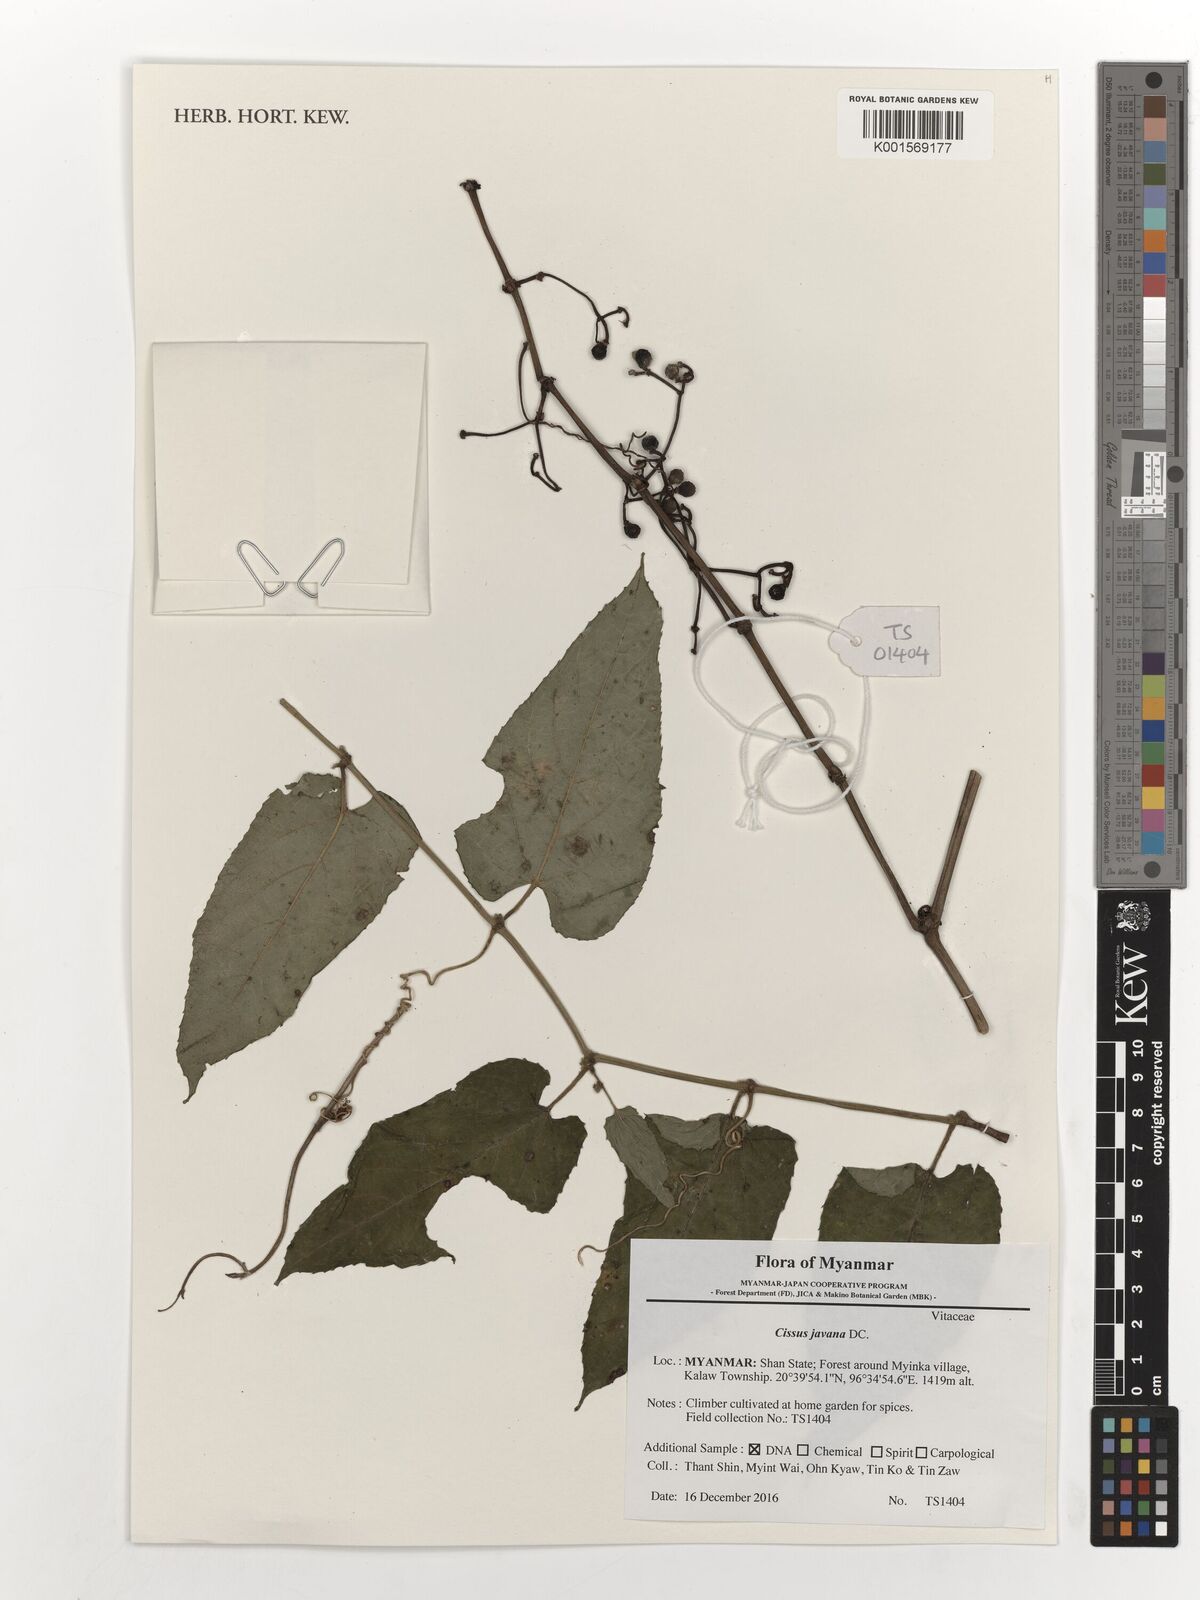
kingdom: Plantae
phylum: Tracheophyta
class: Magnoliopsida
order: Vitales
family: Vitaceae
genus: Cissus
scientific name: Cissus discolor
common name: Climbing-begonia
